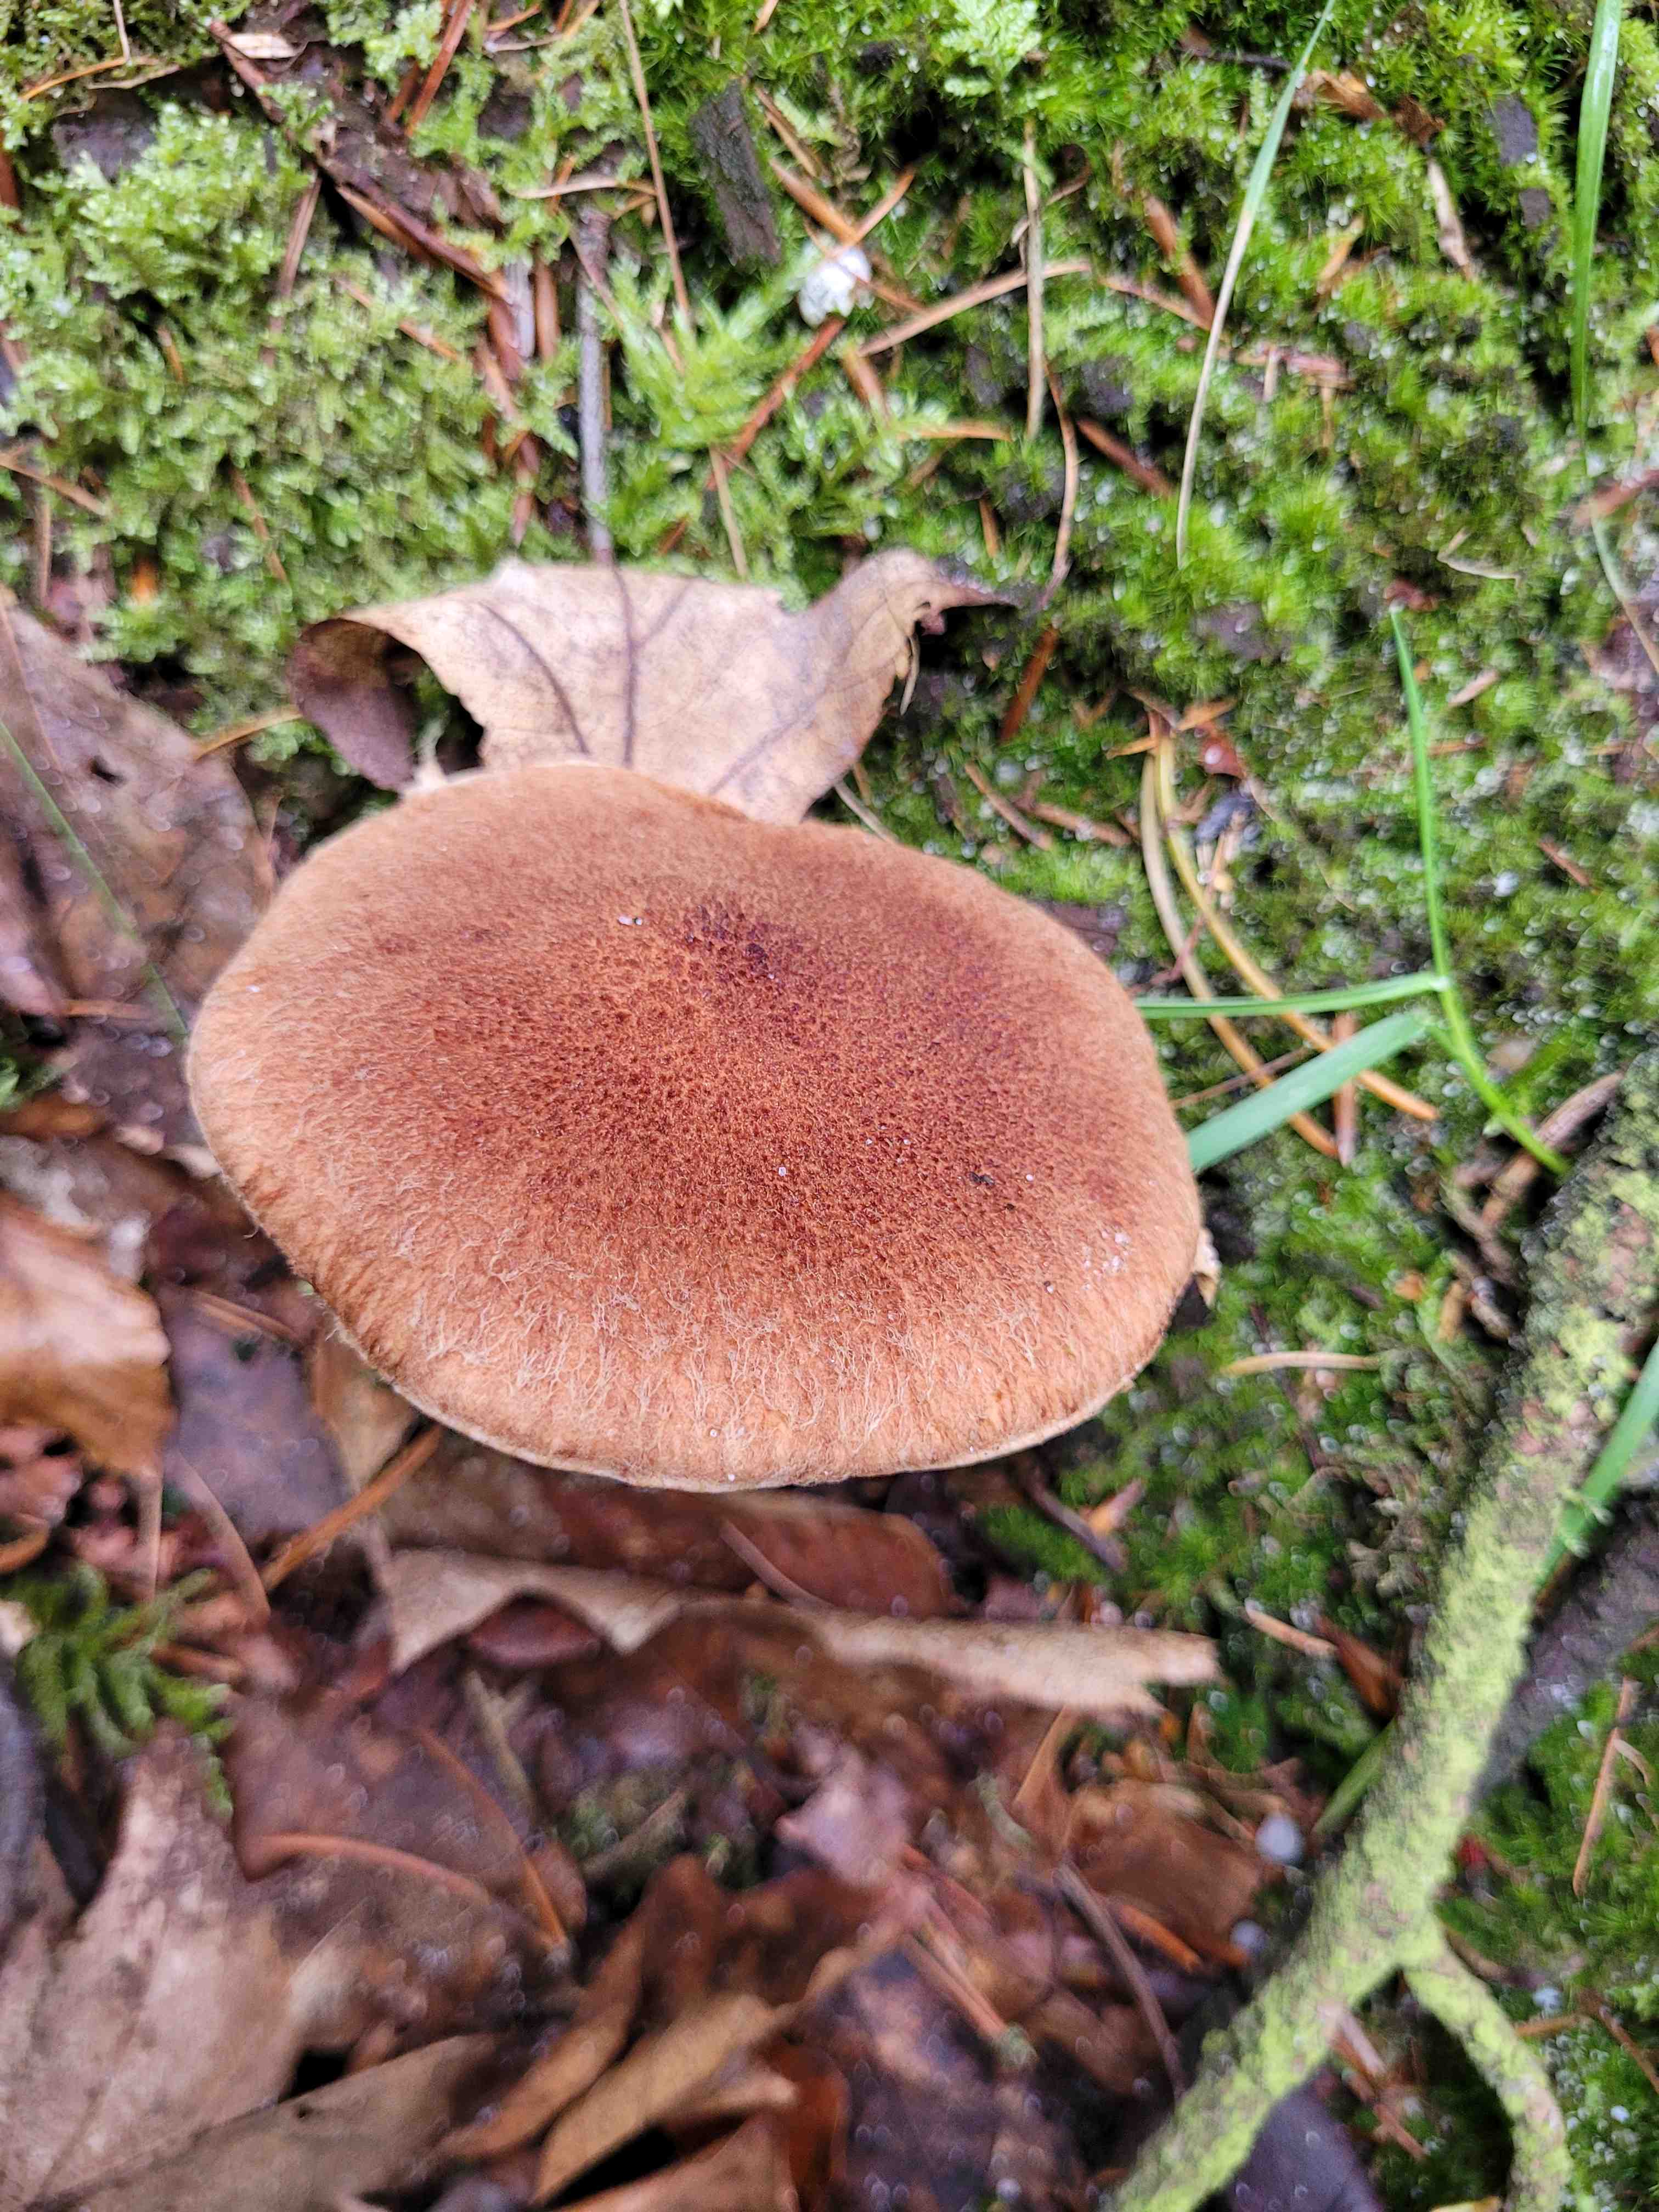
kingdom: Fungi
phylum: Basidiomycota
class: Agaricomycetes
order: Boletales
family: Suillaceae
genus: Suillus
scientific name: Suillus cavipes
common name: hulstokket slimrørhat
